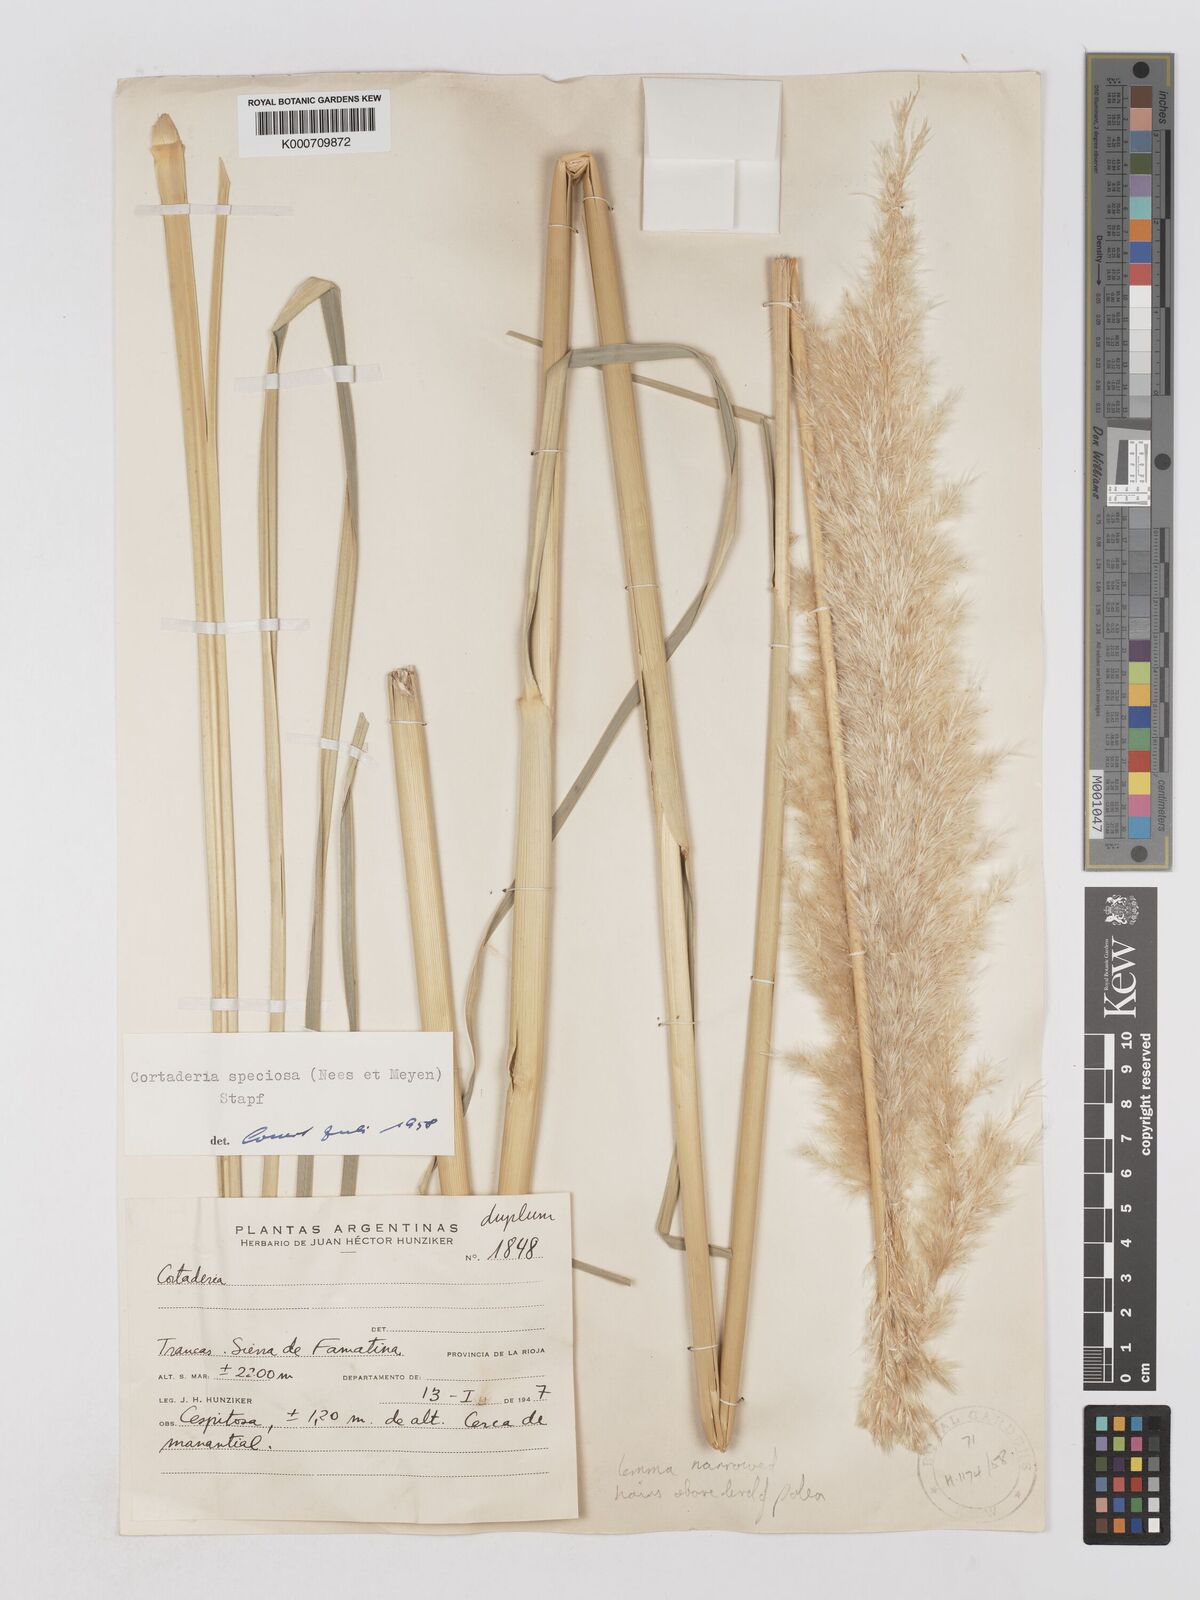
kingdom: Plantae
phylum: Tracheophyta
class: Liliopsida
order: Poales
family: Poaceae
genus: Cortaderia
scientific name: Cortaderia speciosa
